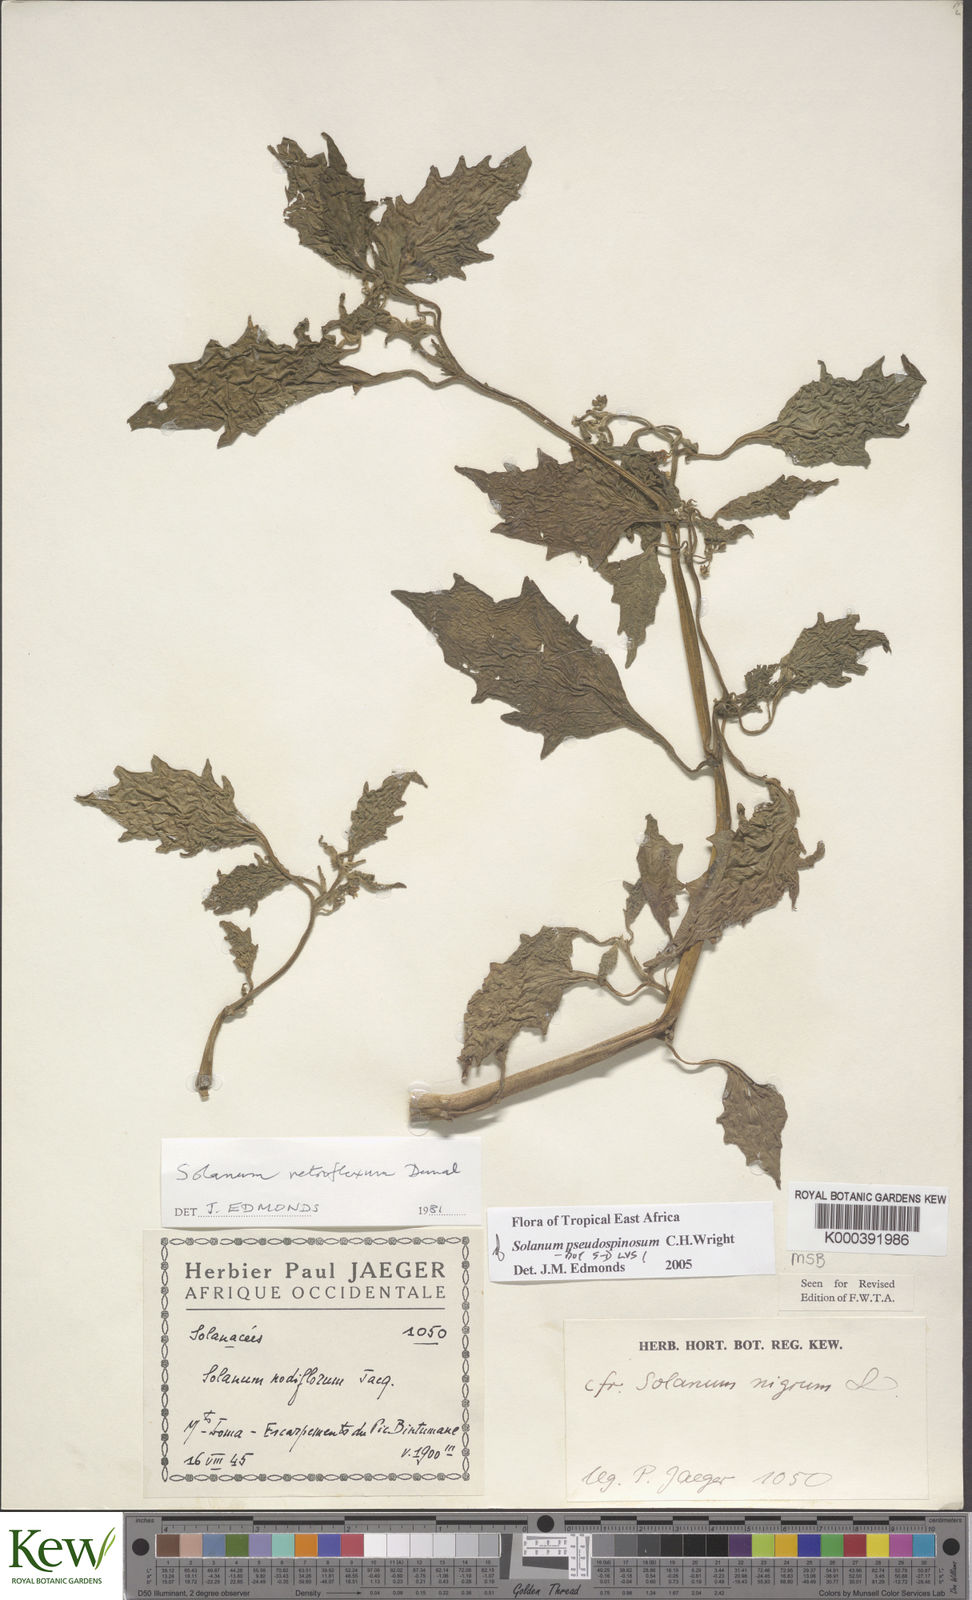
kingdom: Plantae
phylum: Tracheophyta
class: Magnoliopsida
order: Solanales
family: Solanaceae
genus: Solanum
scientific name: Solanum pseudospinosum
